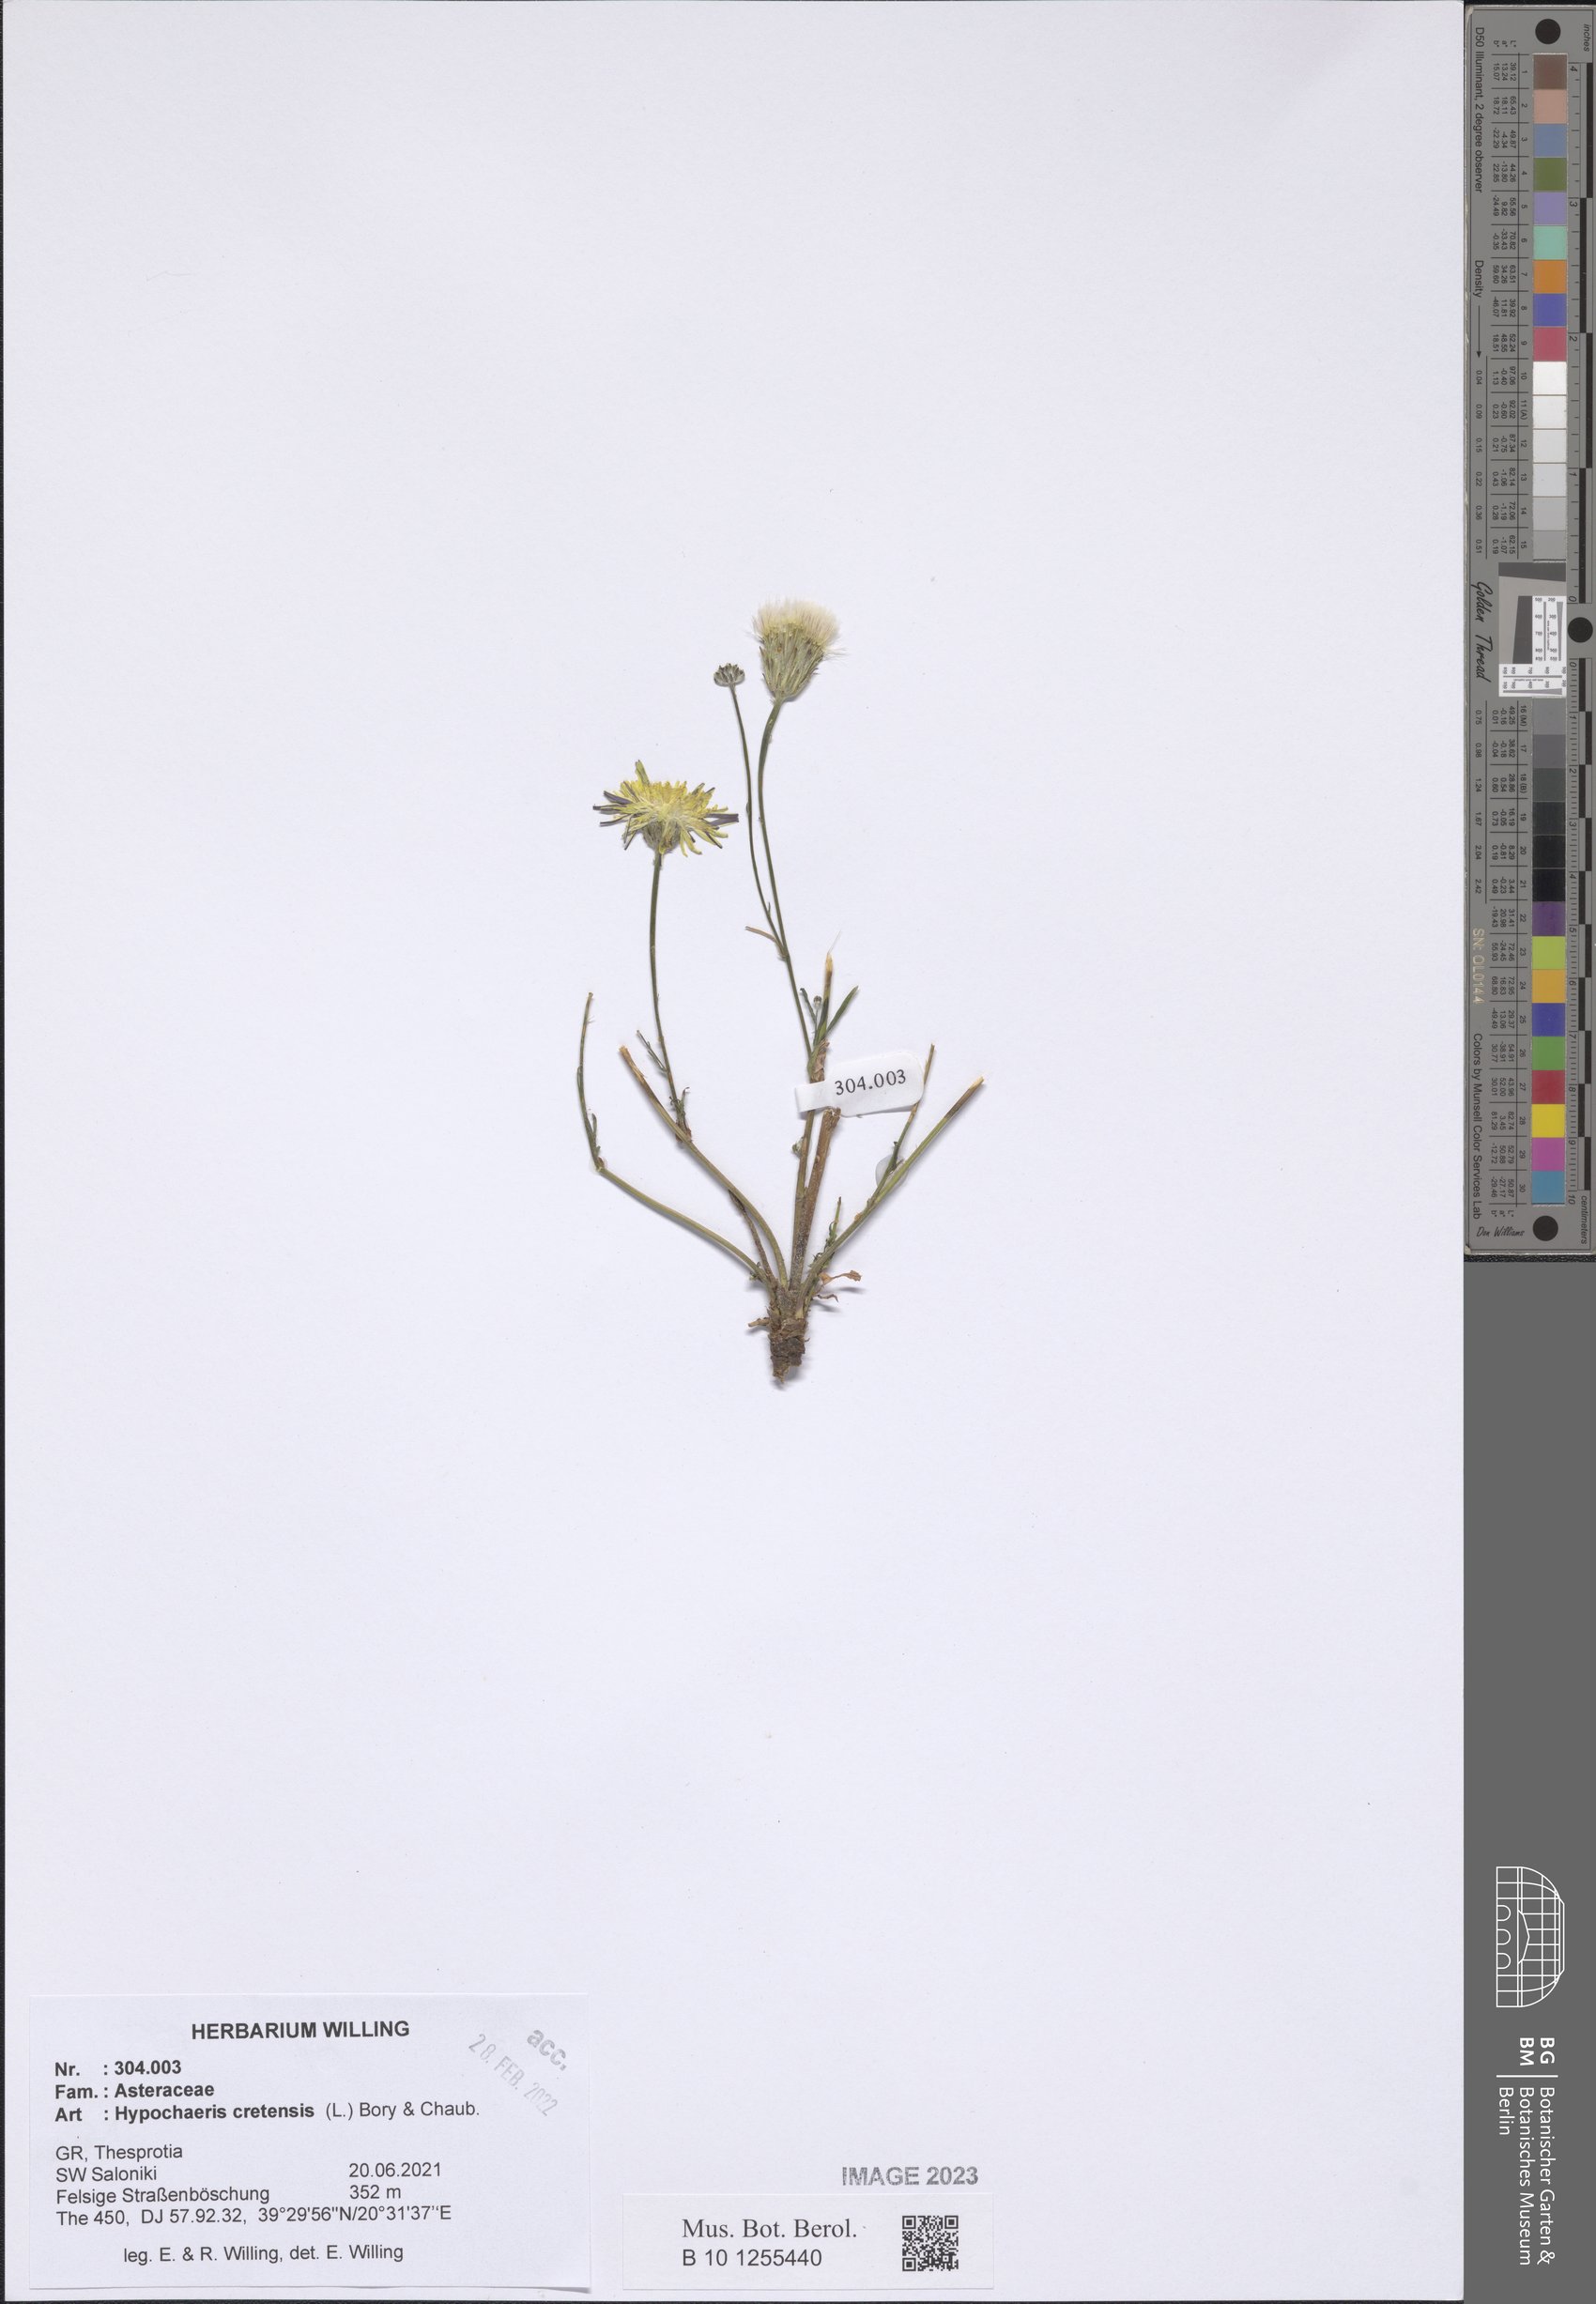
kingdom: Plantae
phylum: Tracheophyta
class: Magnoliopsida
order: Asterales
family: Asteraceae
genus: Hypochaeris
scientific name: Hypochaeris cretensis
